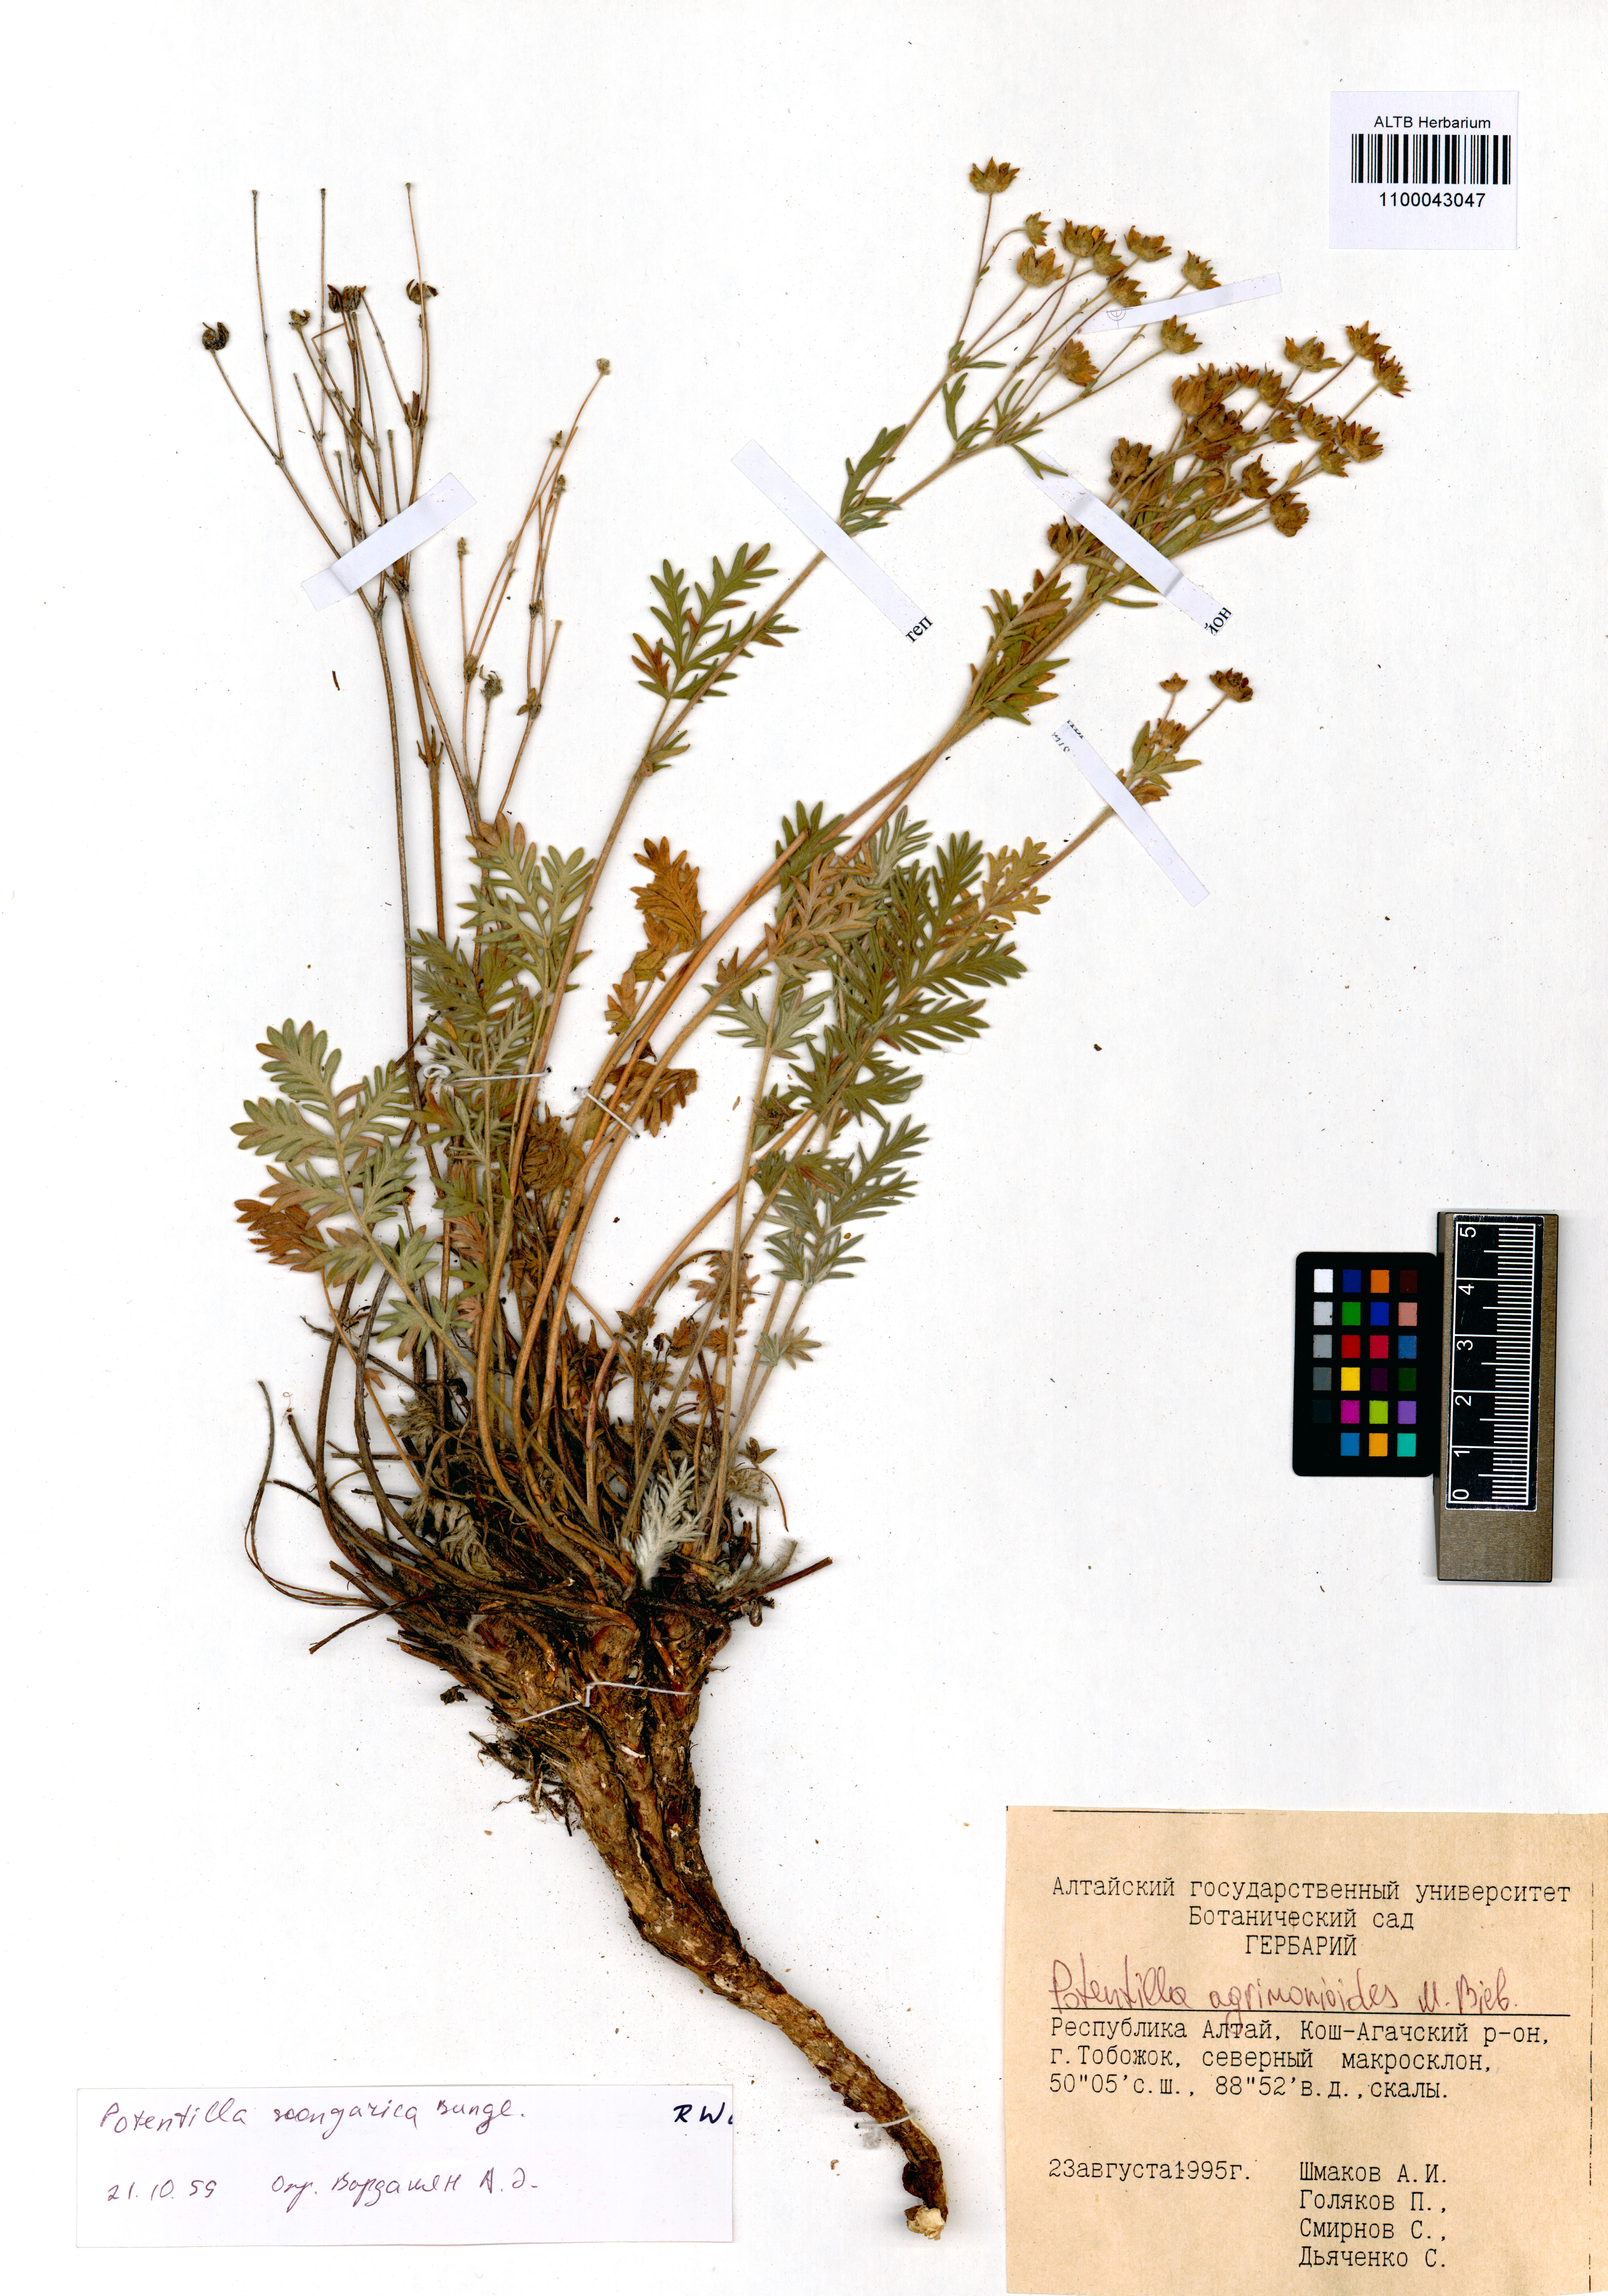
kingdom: Plantae
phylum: Tracheophyta
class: Magnoliopsida
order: Rosales
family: Rosaceae
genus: Potentilla
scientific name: Potentilla agrimonioides
